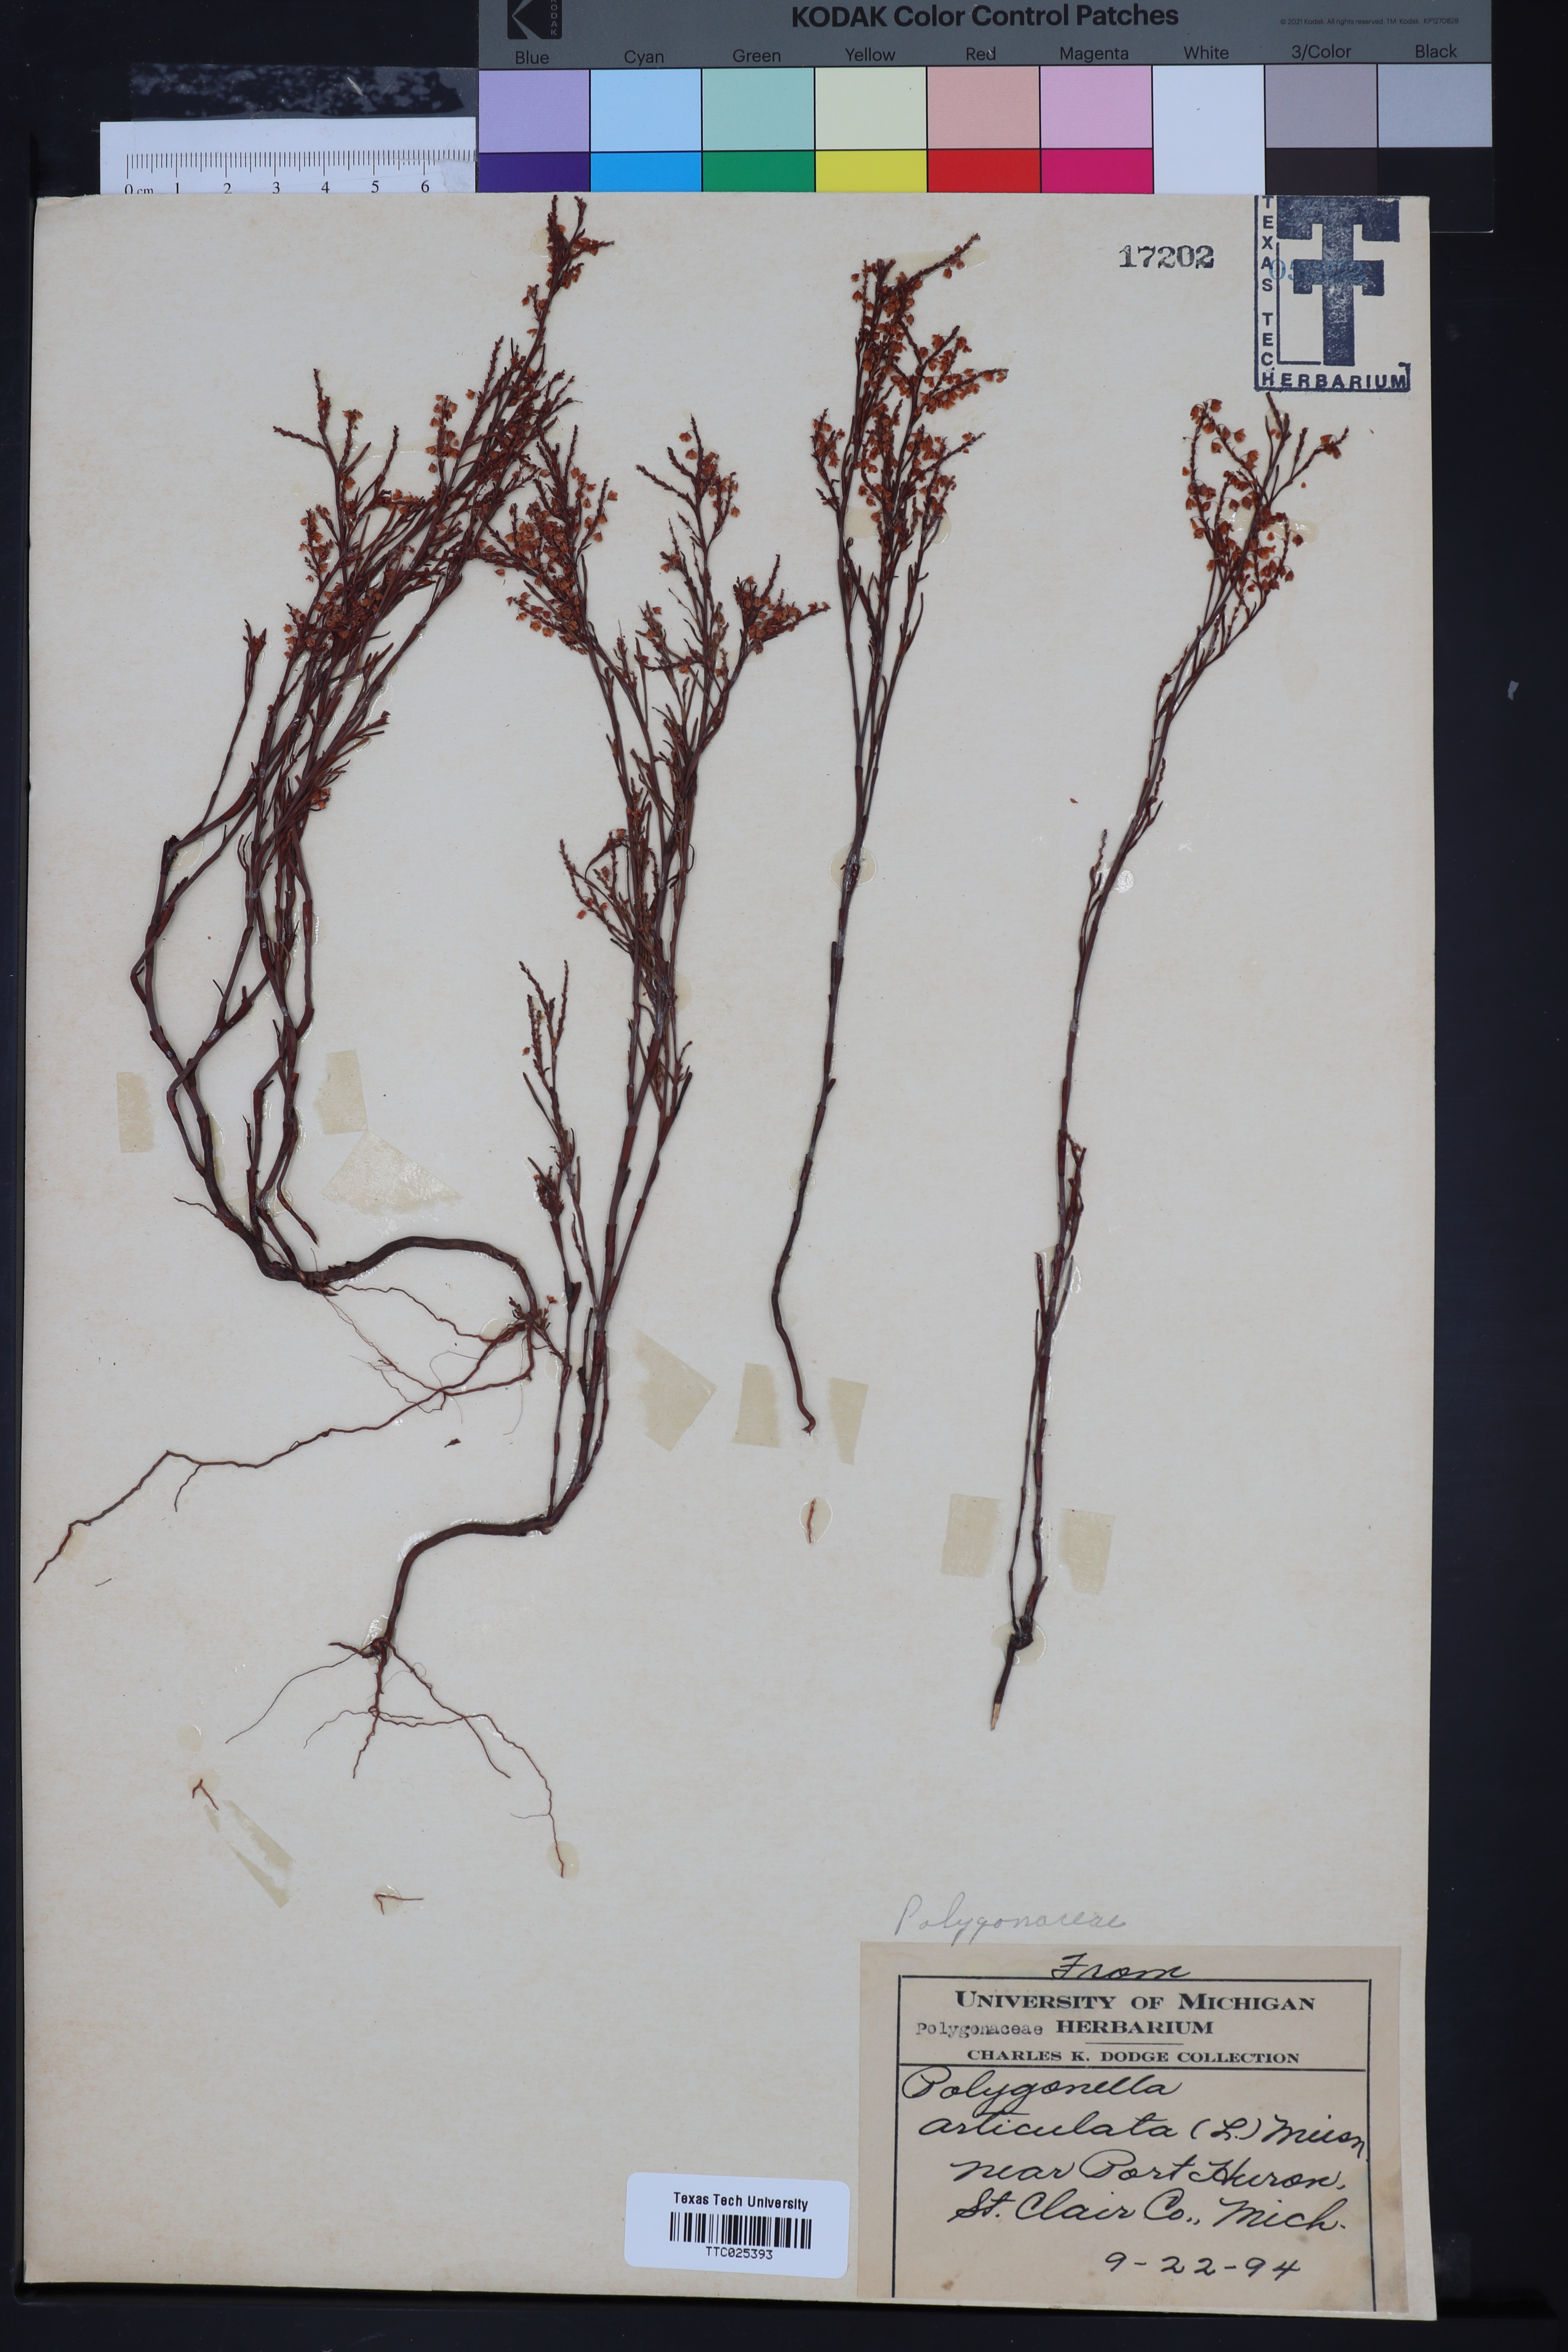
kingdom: Plantae
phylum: Tracheophyta
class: Magnoliopsida
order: Caryophyllales
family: Polygonaceae
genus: Polygonella
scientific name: Polygonella articulata
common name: Coastal jointweed
